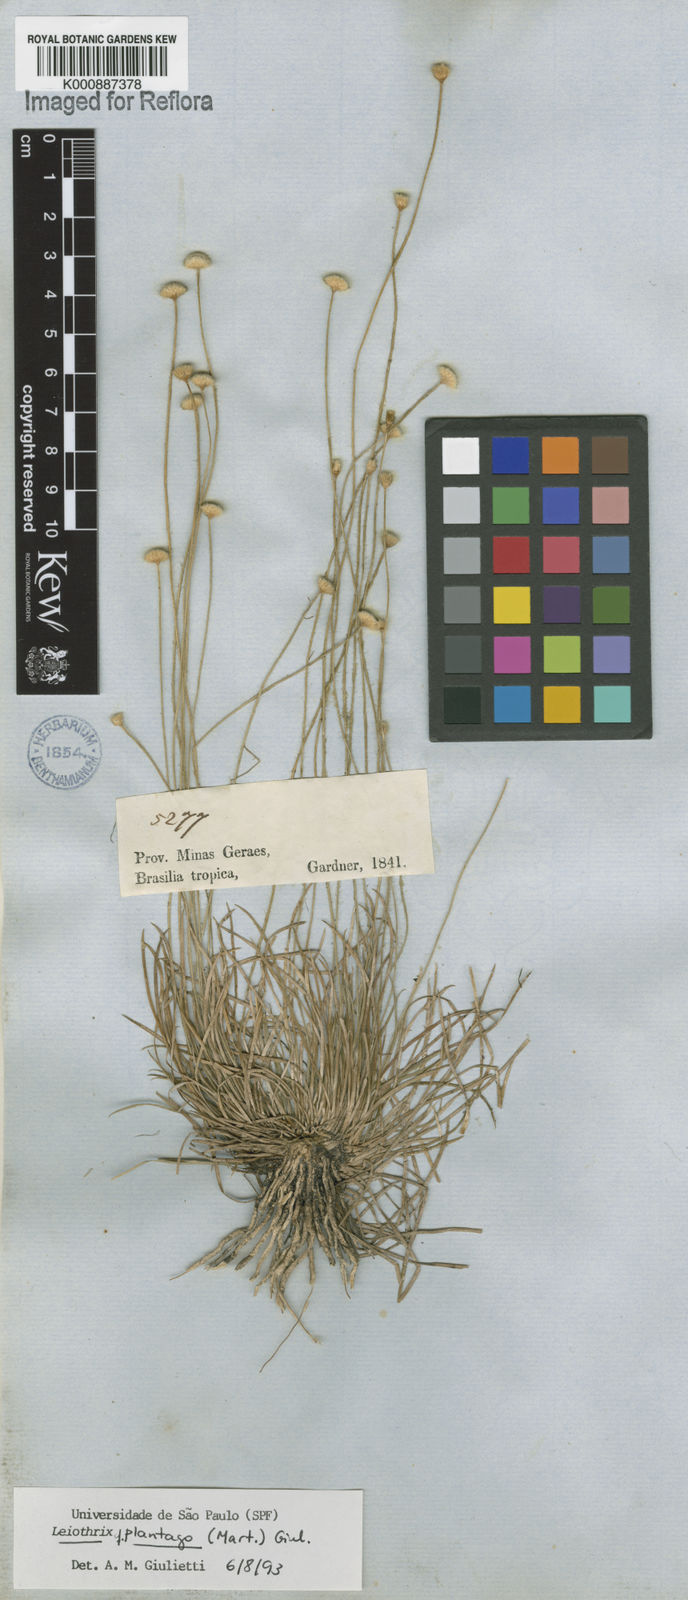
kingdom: Plantae
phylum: Tracheophyta
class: Liliopsida
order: Poales
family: Eriocaulaceae
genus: Leiothrix
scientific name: Leiothrix
